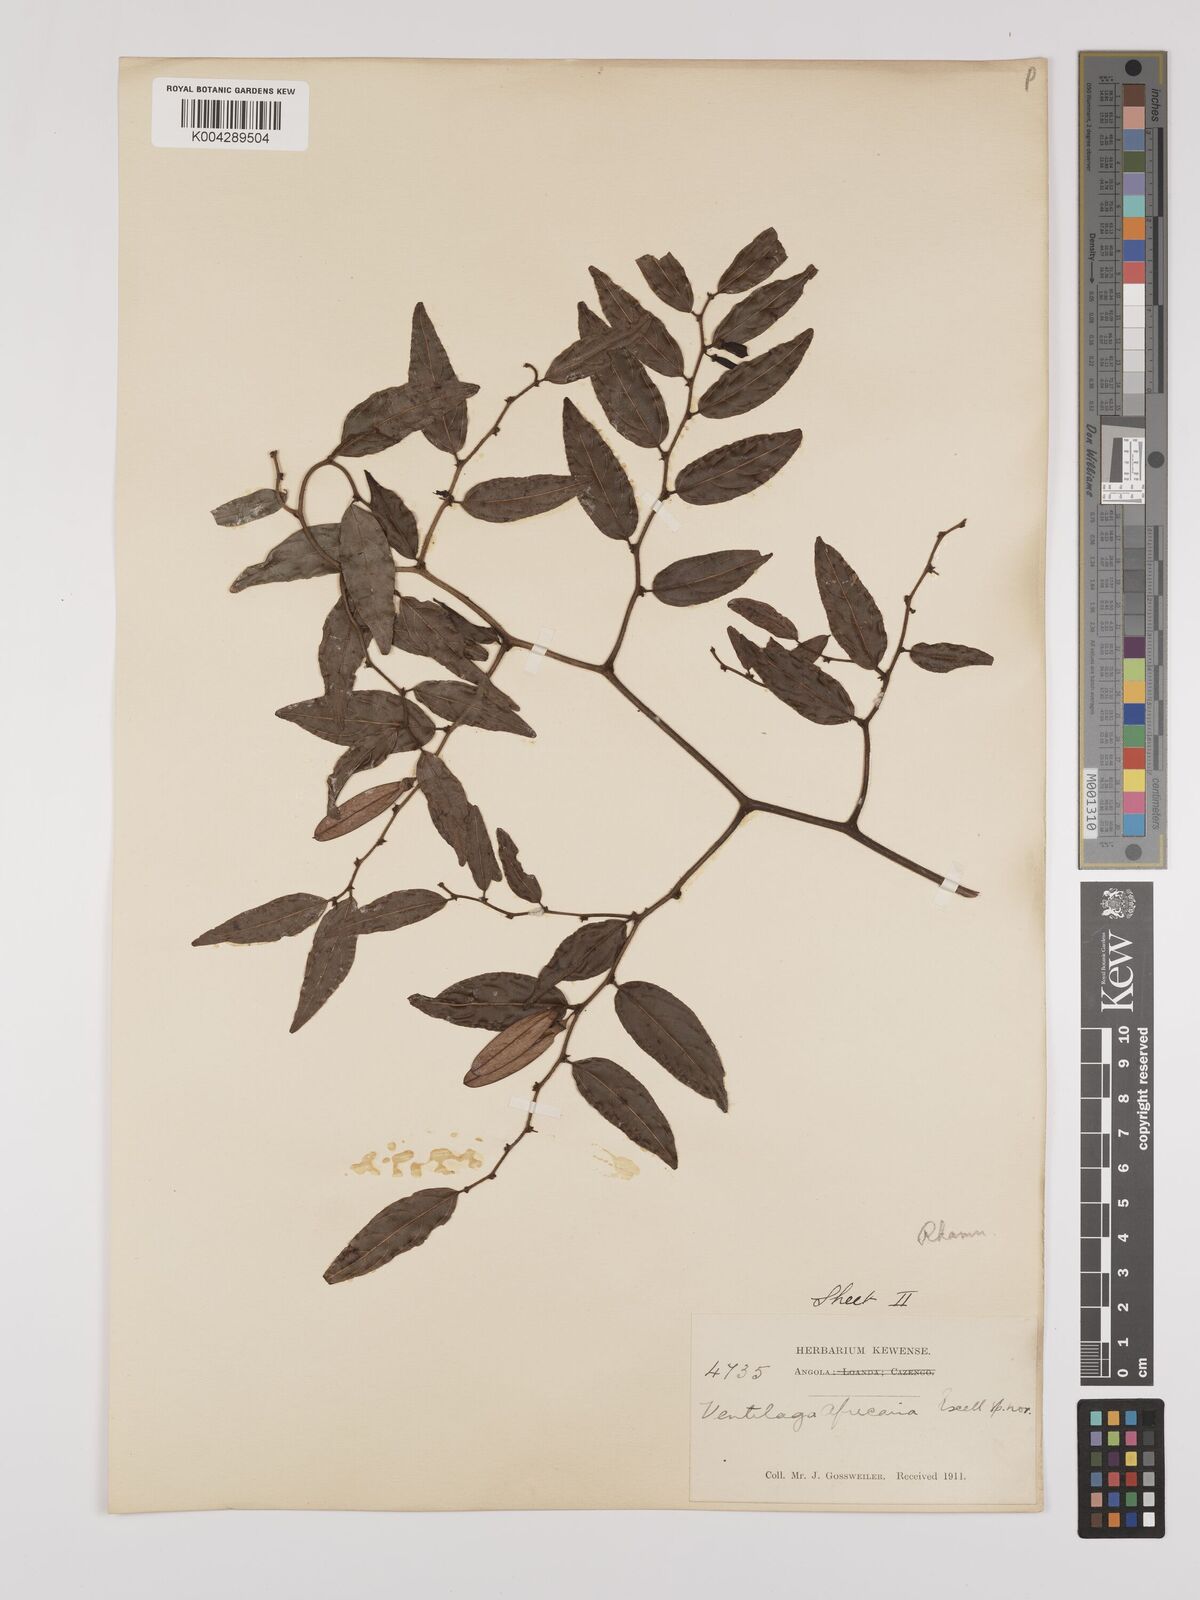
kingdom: Plantae
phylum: Tracheophyta
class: Magnoliopsida
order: Rosales
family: Rhamnaceae
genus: Ventilago
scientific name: Ventilago africana
